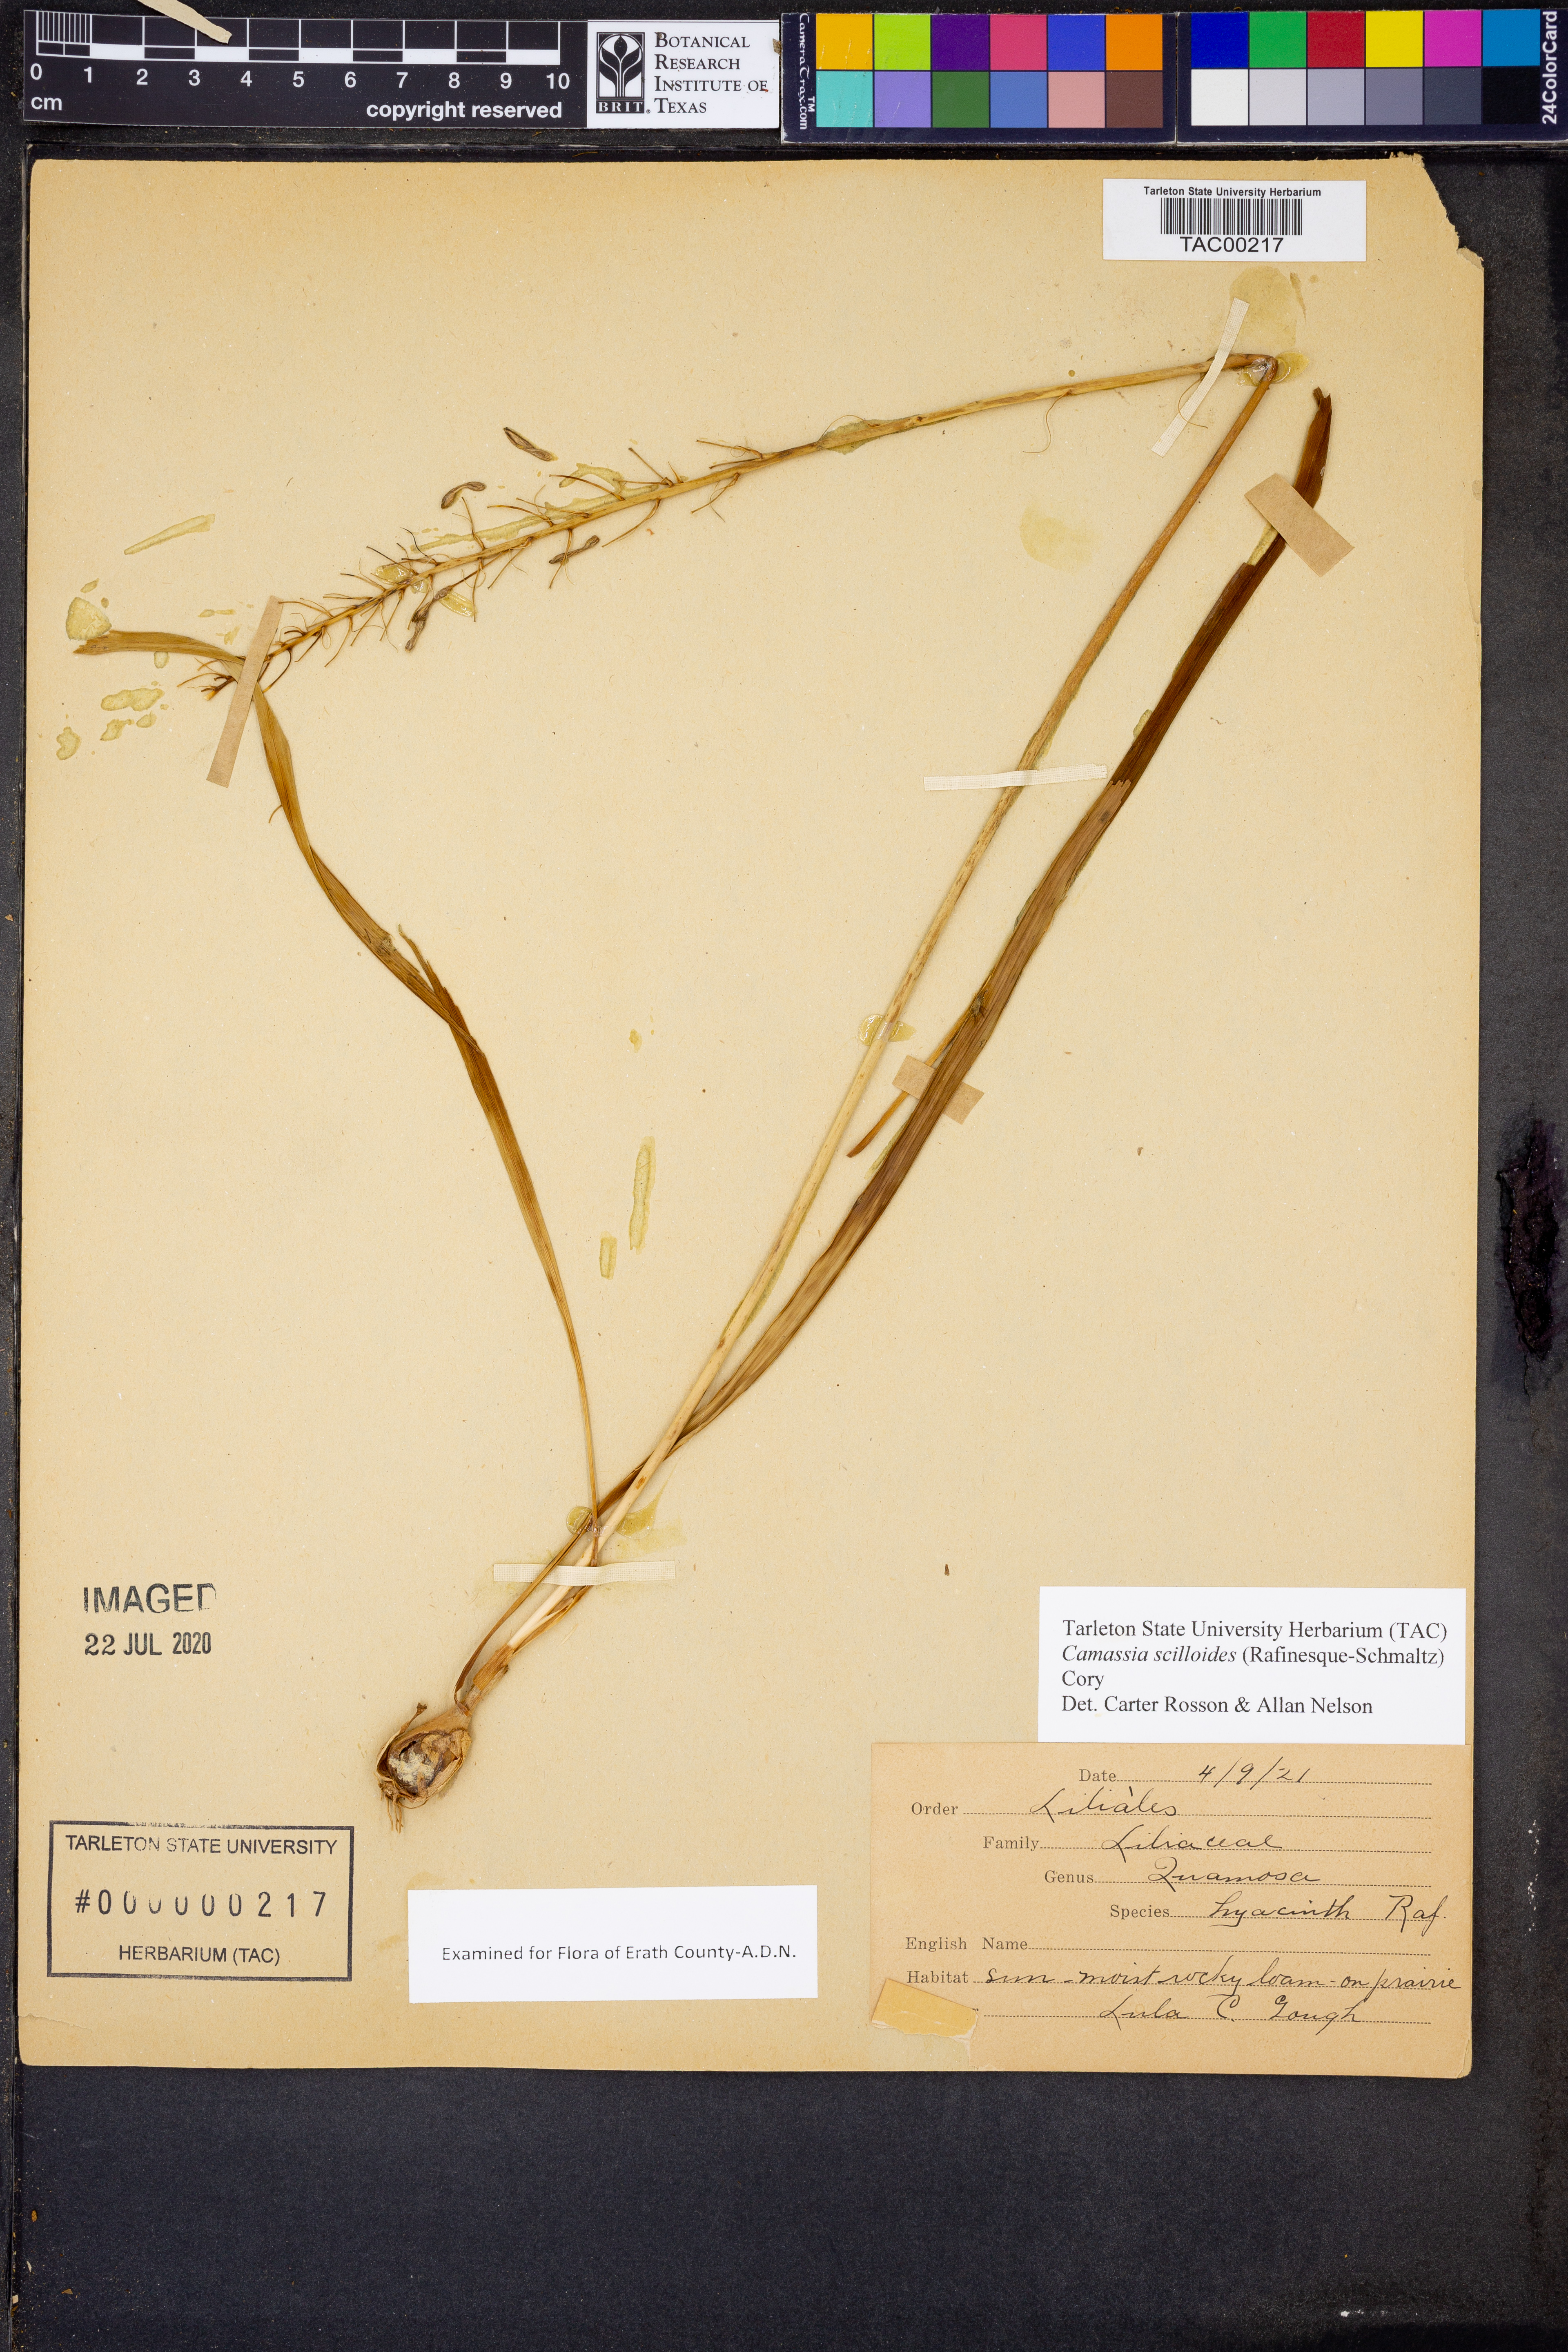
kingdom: Plantae
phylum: Tracheophyta
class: Liliopsida
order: Asparagales
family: Asparagaceae
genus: Camassia
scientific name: Camassia scilloides
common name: Wild hyacinth
